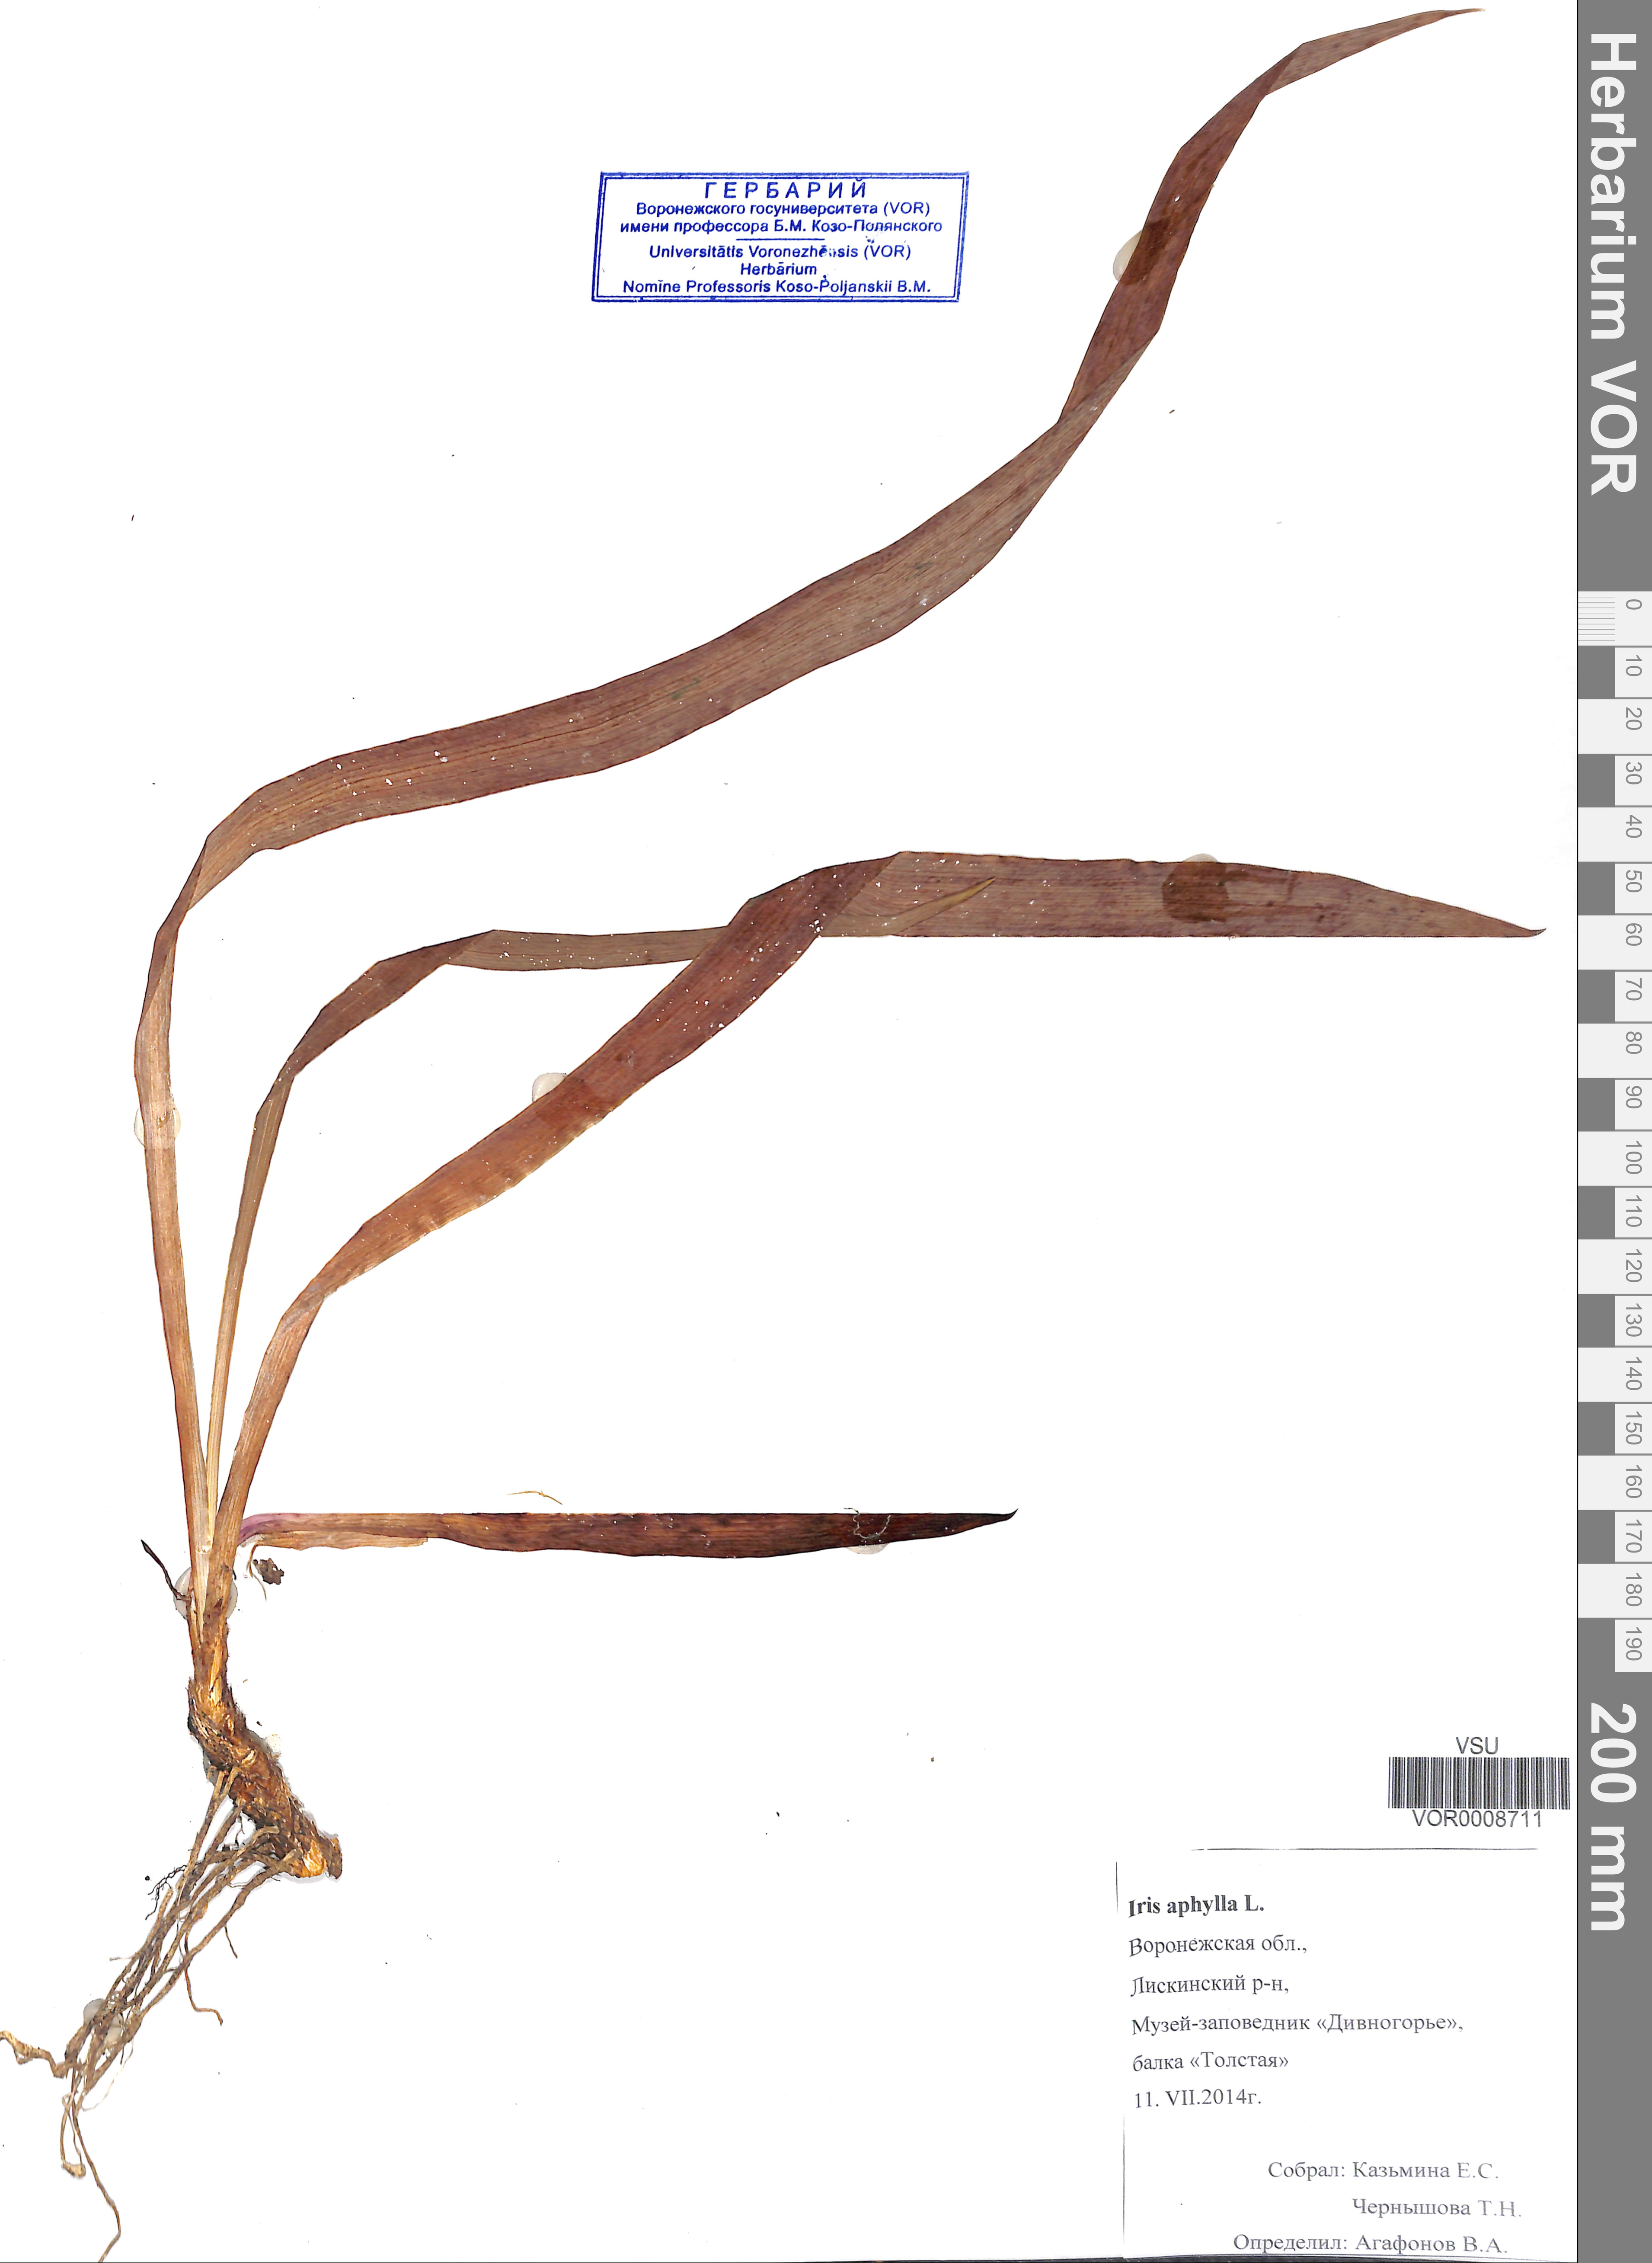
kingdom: Plantae
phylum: Tracheophyta
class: Liliopsida
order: Asparagales
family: Iridaceae
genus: Iris
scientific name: Iris aphylla
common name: Stool iris
